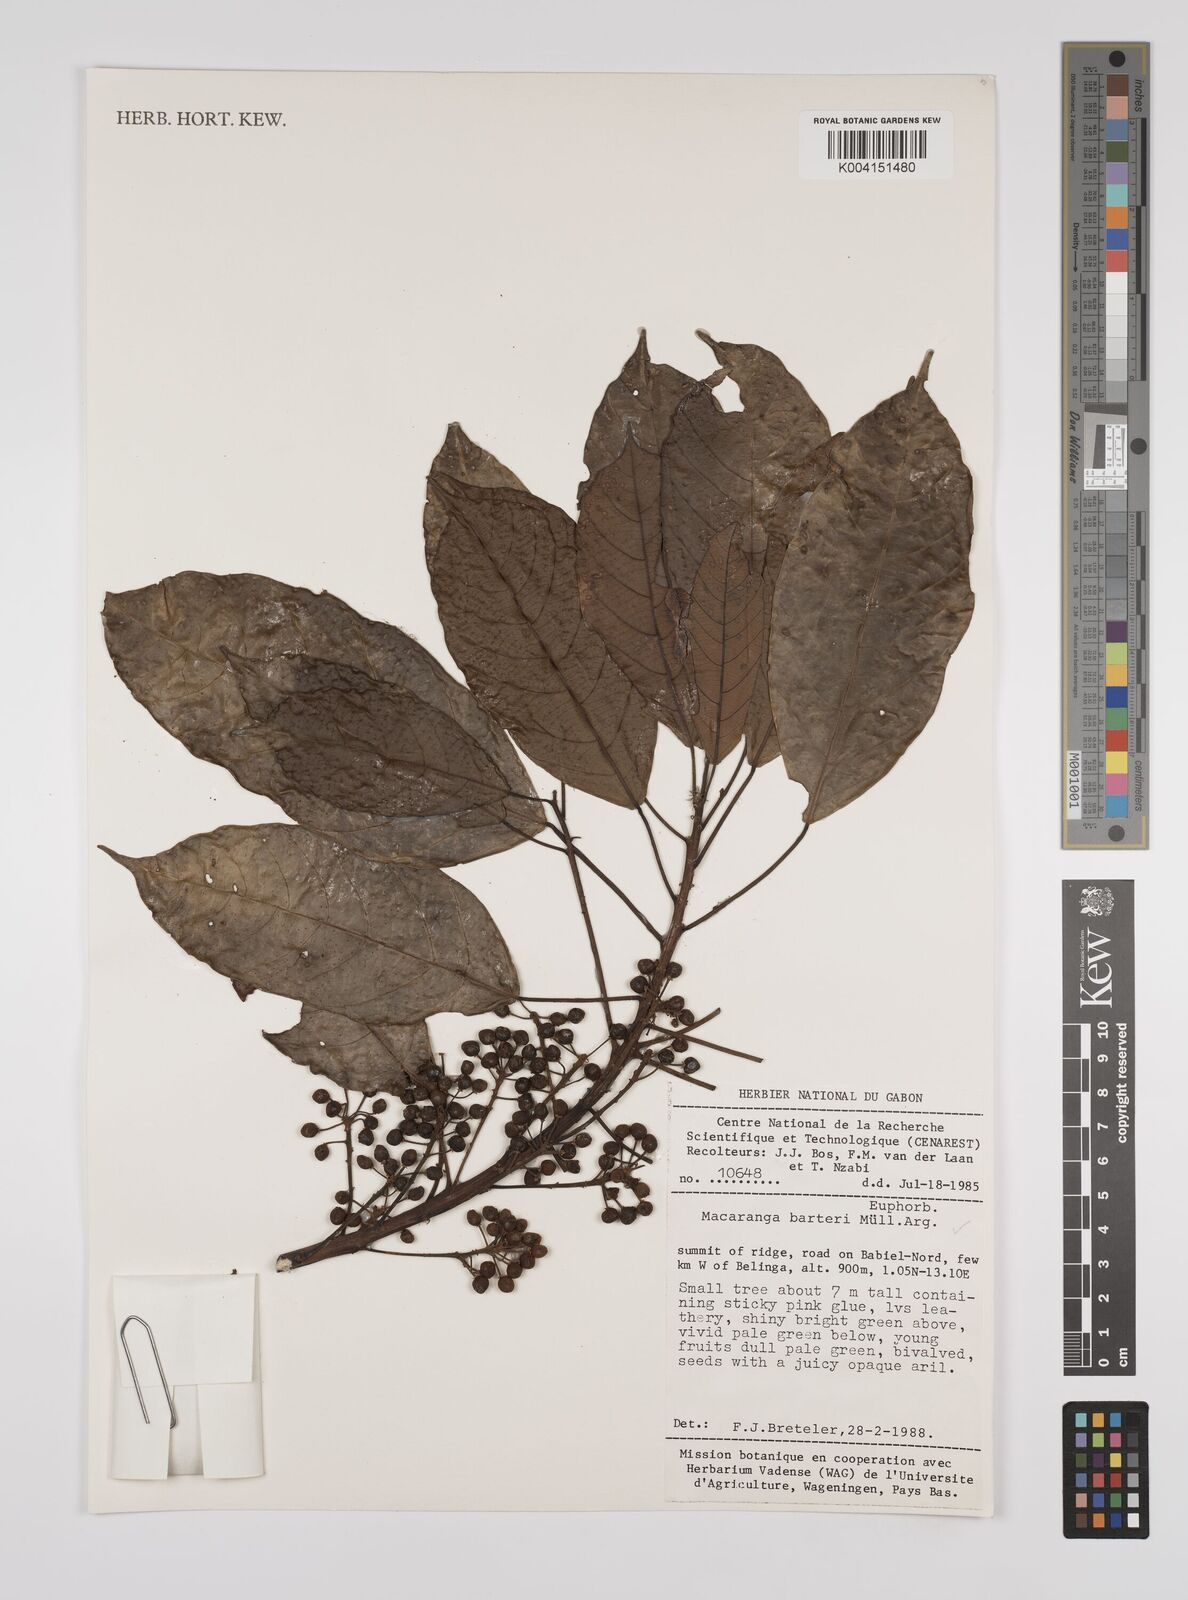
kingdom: Plantae
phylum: Tracheophyta
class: Magnoliopsida
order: Malpighiales
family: Euphorbiaceae
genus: Macaranga
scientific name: Macaranga barteri
